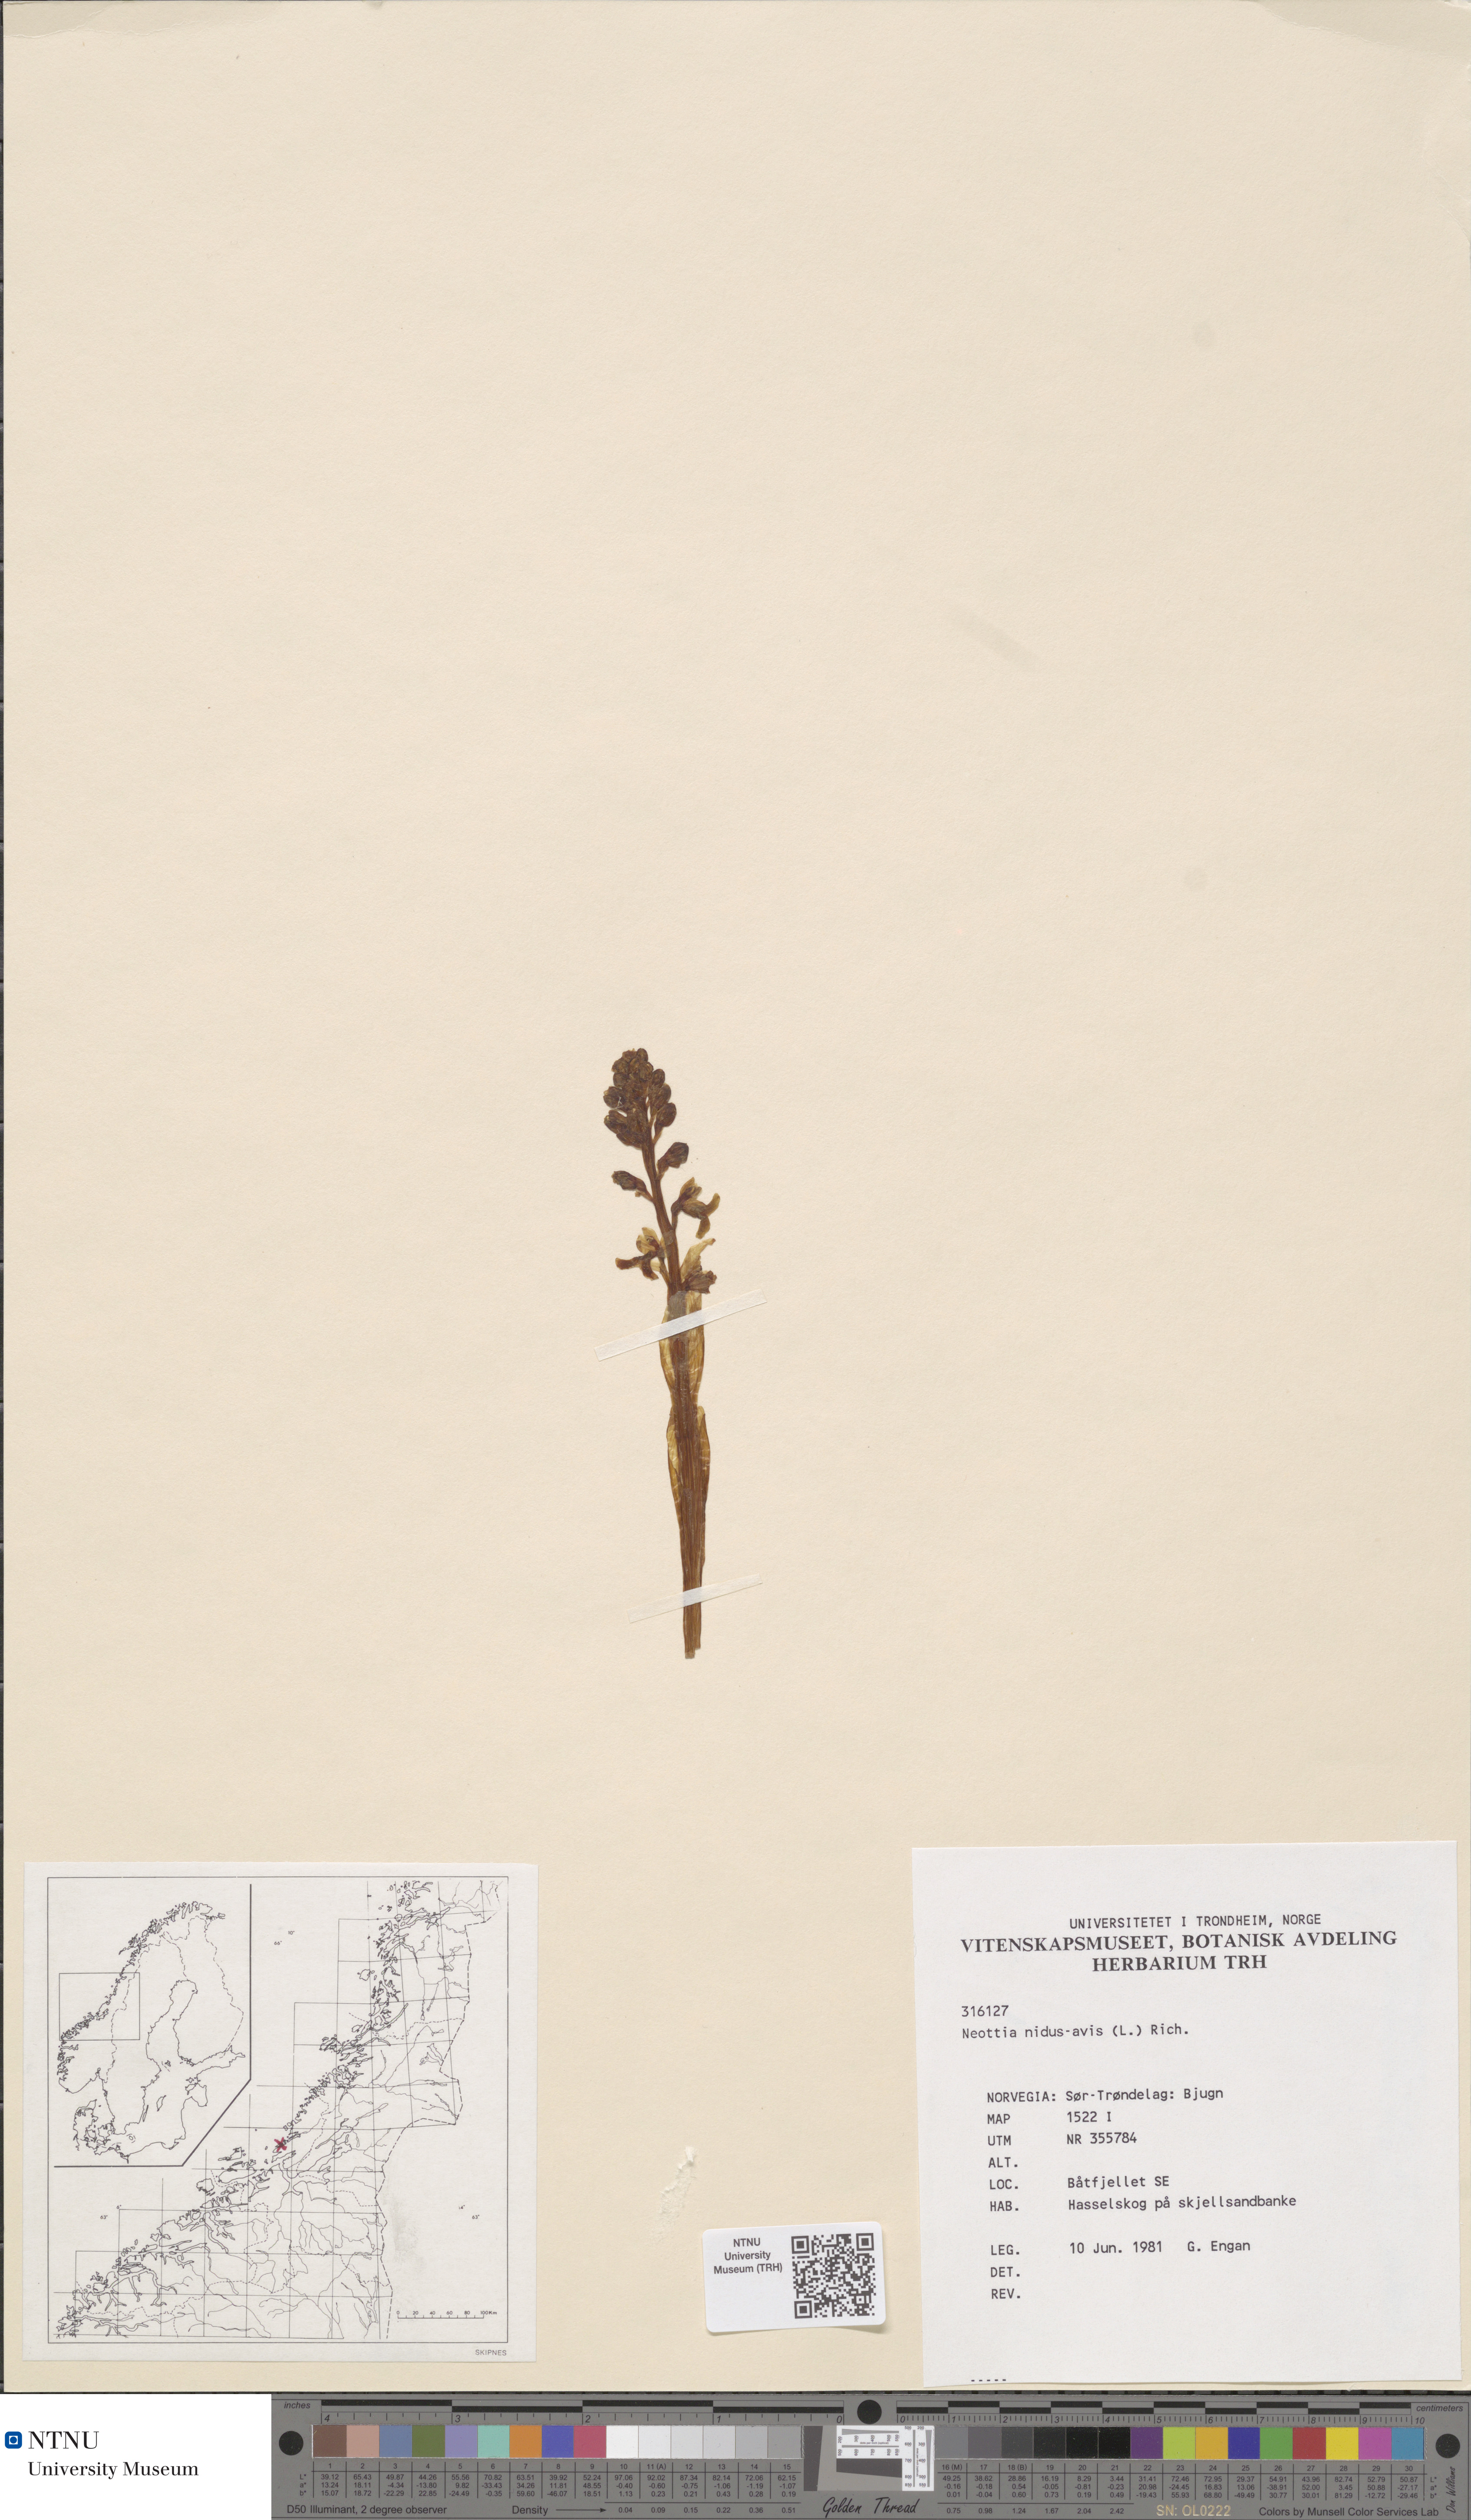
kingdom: Plantae
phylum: Tracheophyta
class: Liliopsida
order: Asparagales
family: Orchidaceae
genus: Neottia
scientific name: Neottia nidus-avis
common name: Bird's-nest orchid
